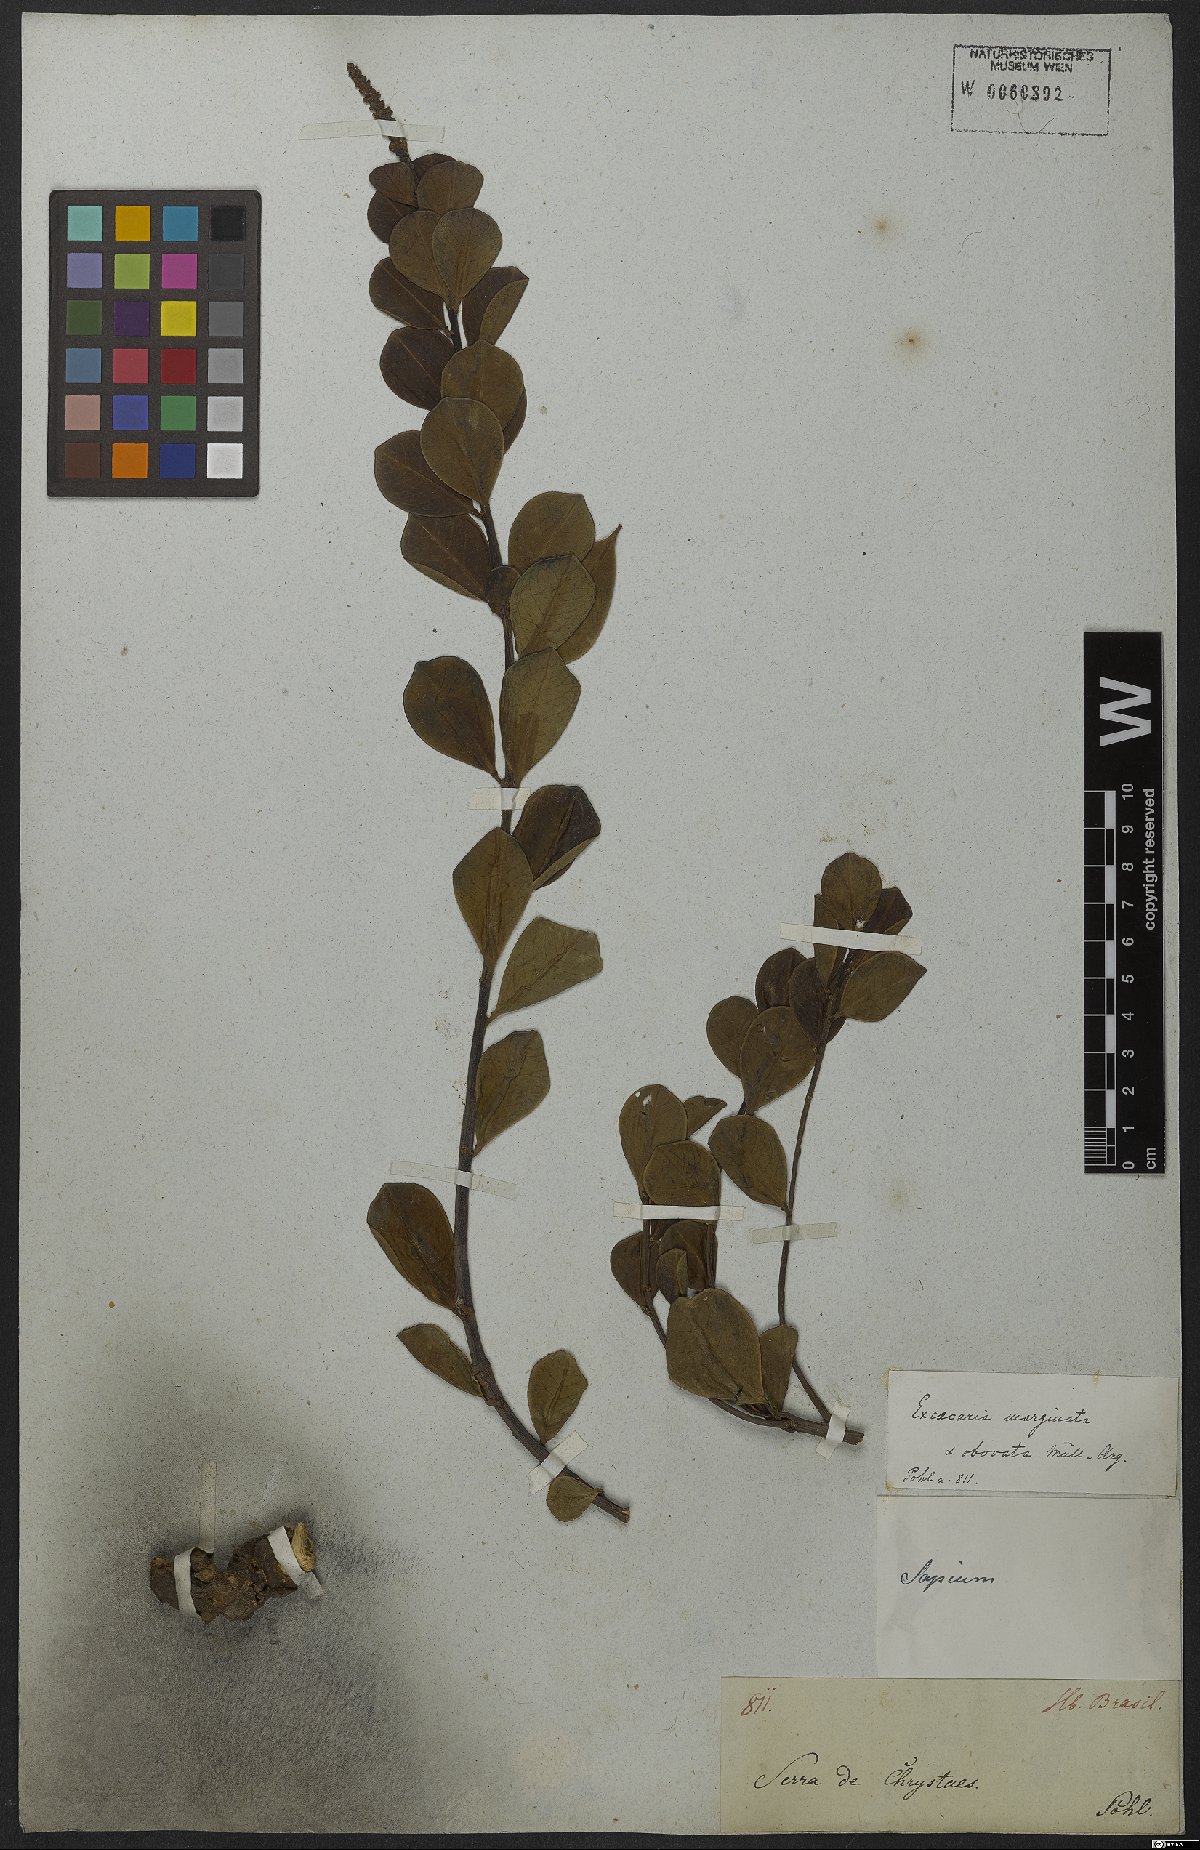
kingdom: Plantae
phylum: Tracheophyta
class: Magnoliopsida
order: Malpighiales
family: Euphorbiaceae
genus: Sapium
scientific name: Sapium obovatum
